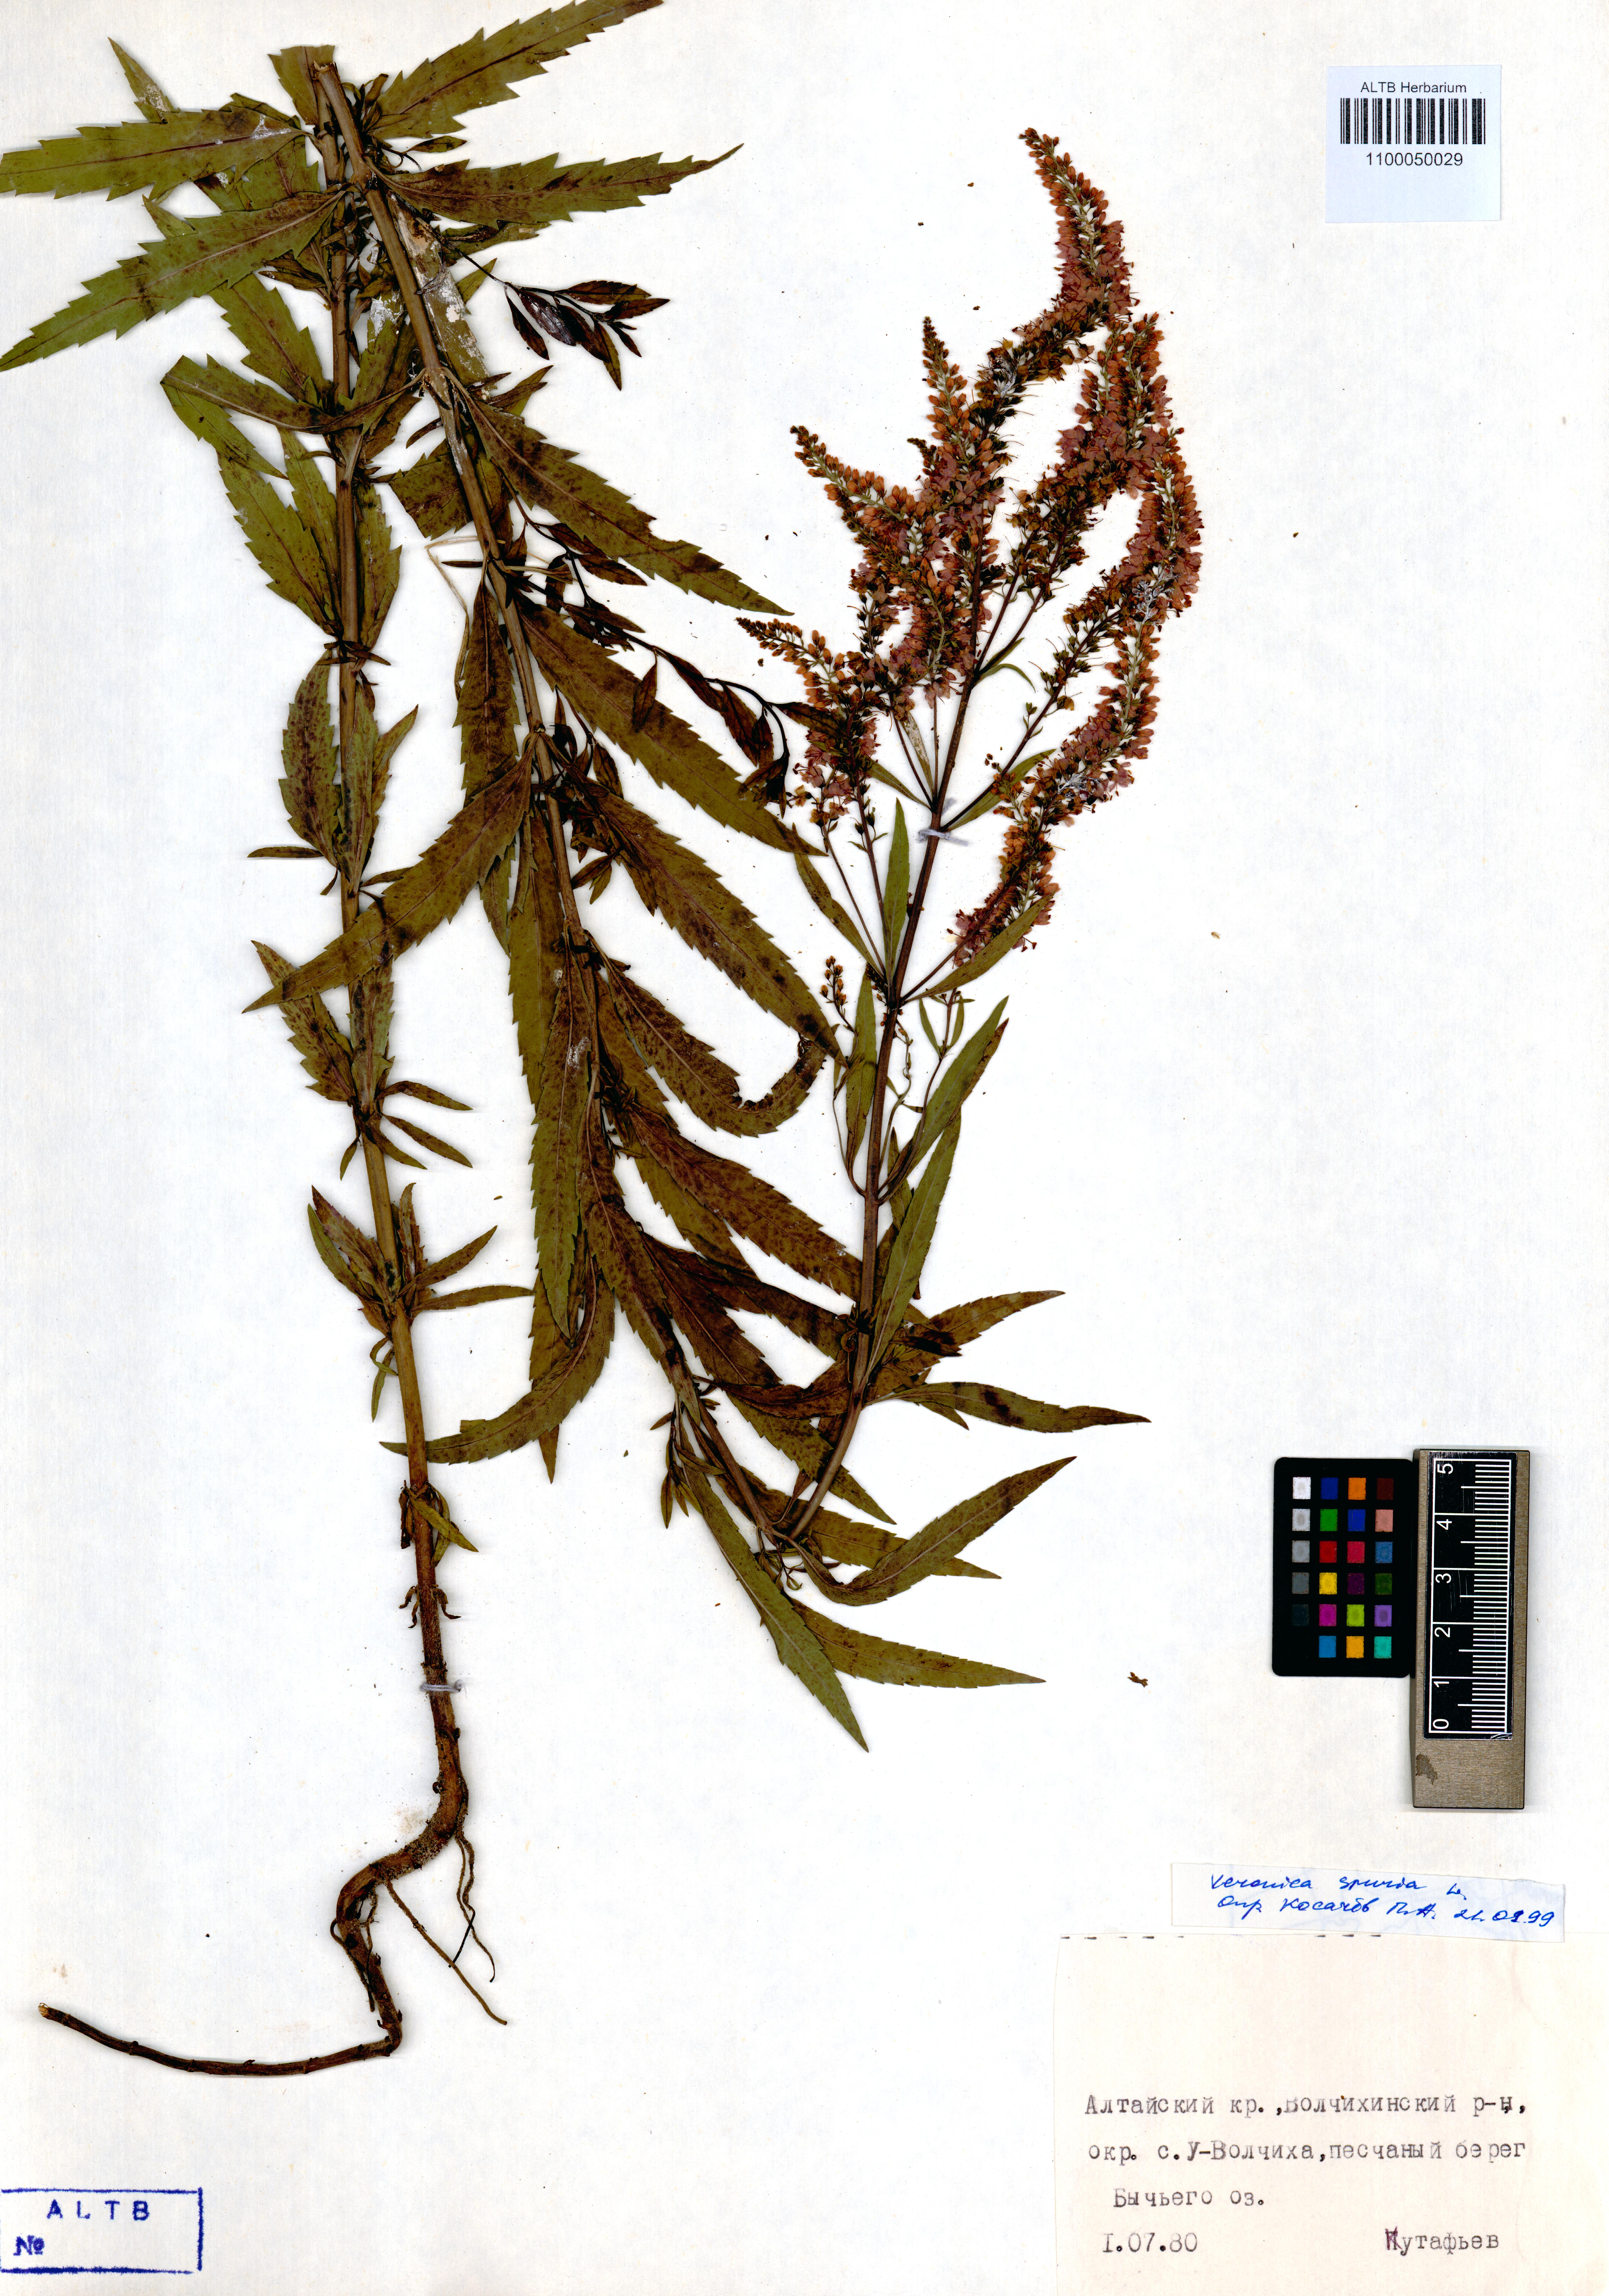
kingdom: Plantae
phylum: Tracheophyta
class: Magnoliopsida
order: Lamiales
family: Plantaginaceae
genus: Veronica
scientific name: Veronica spicata
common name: Spiked speedwell
